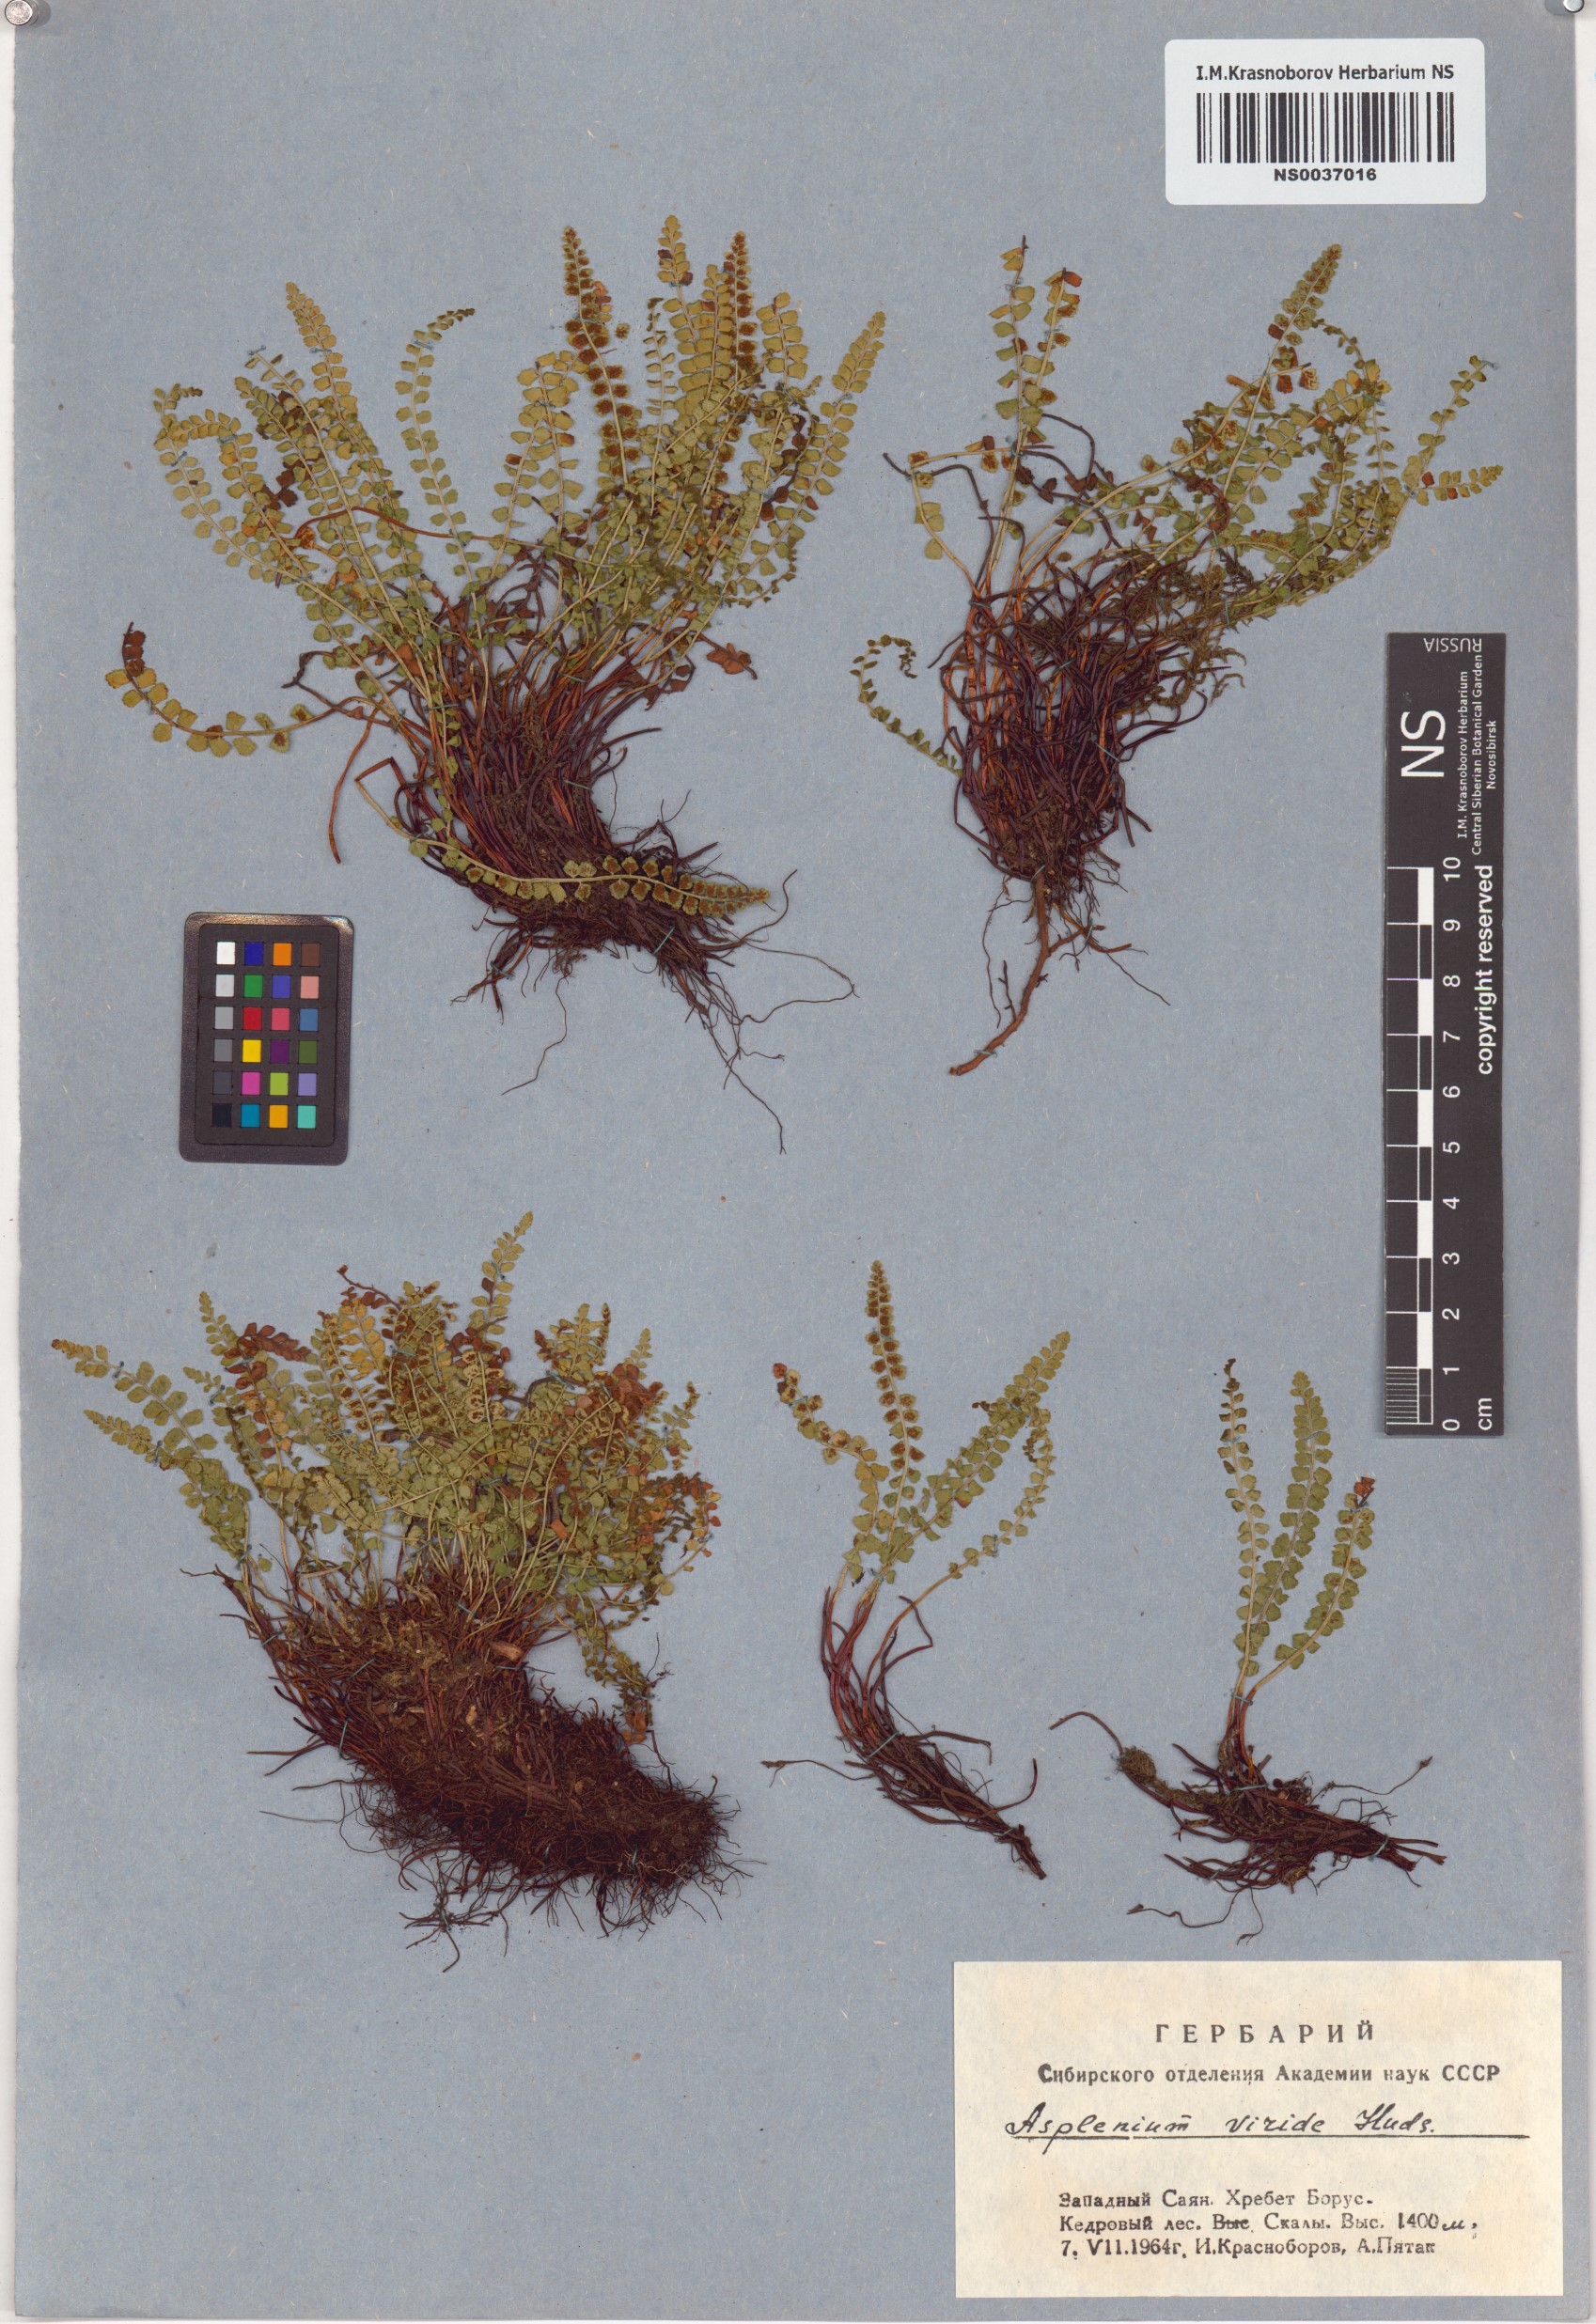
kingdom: Plantae
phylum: Tracheophyta
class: Polypodiopsida
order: Polypodiales
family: Aspleniaceae
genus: Asplenium
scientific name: Asplenium viride
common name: Green spleenwort
